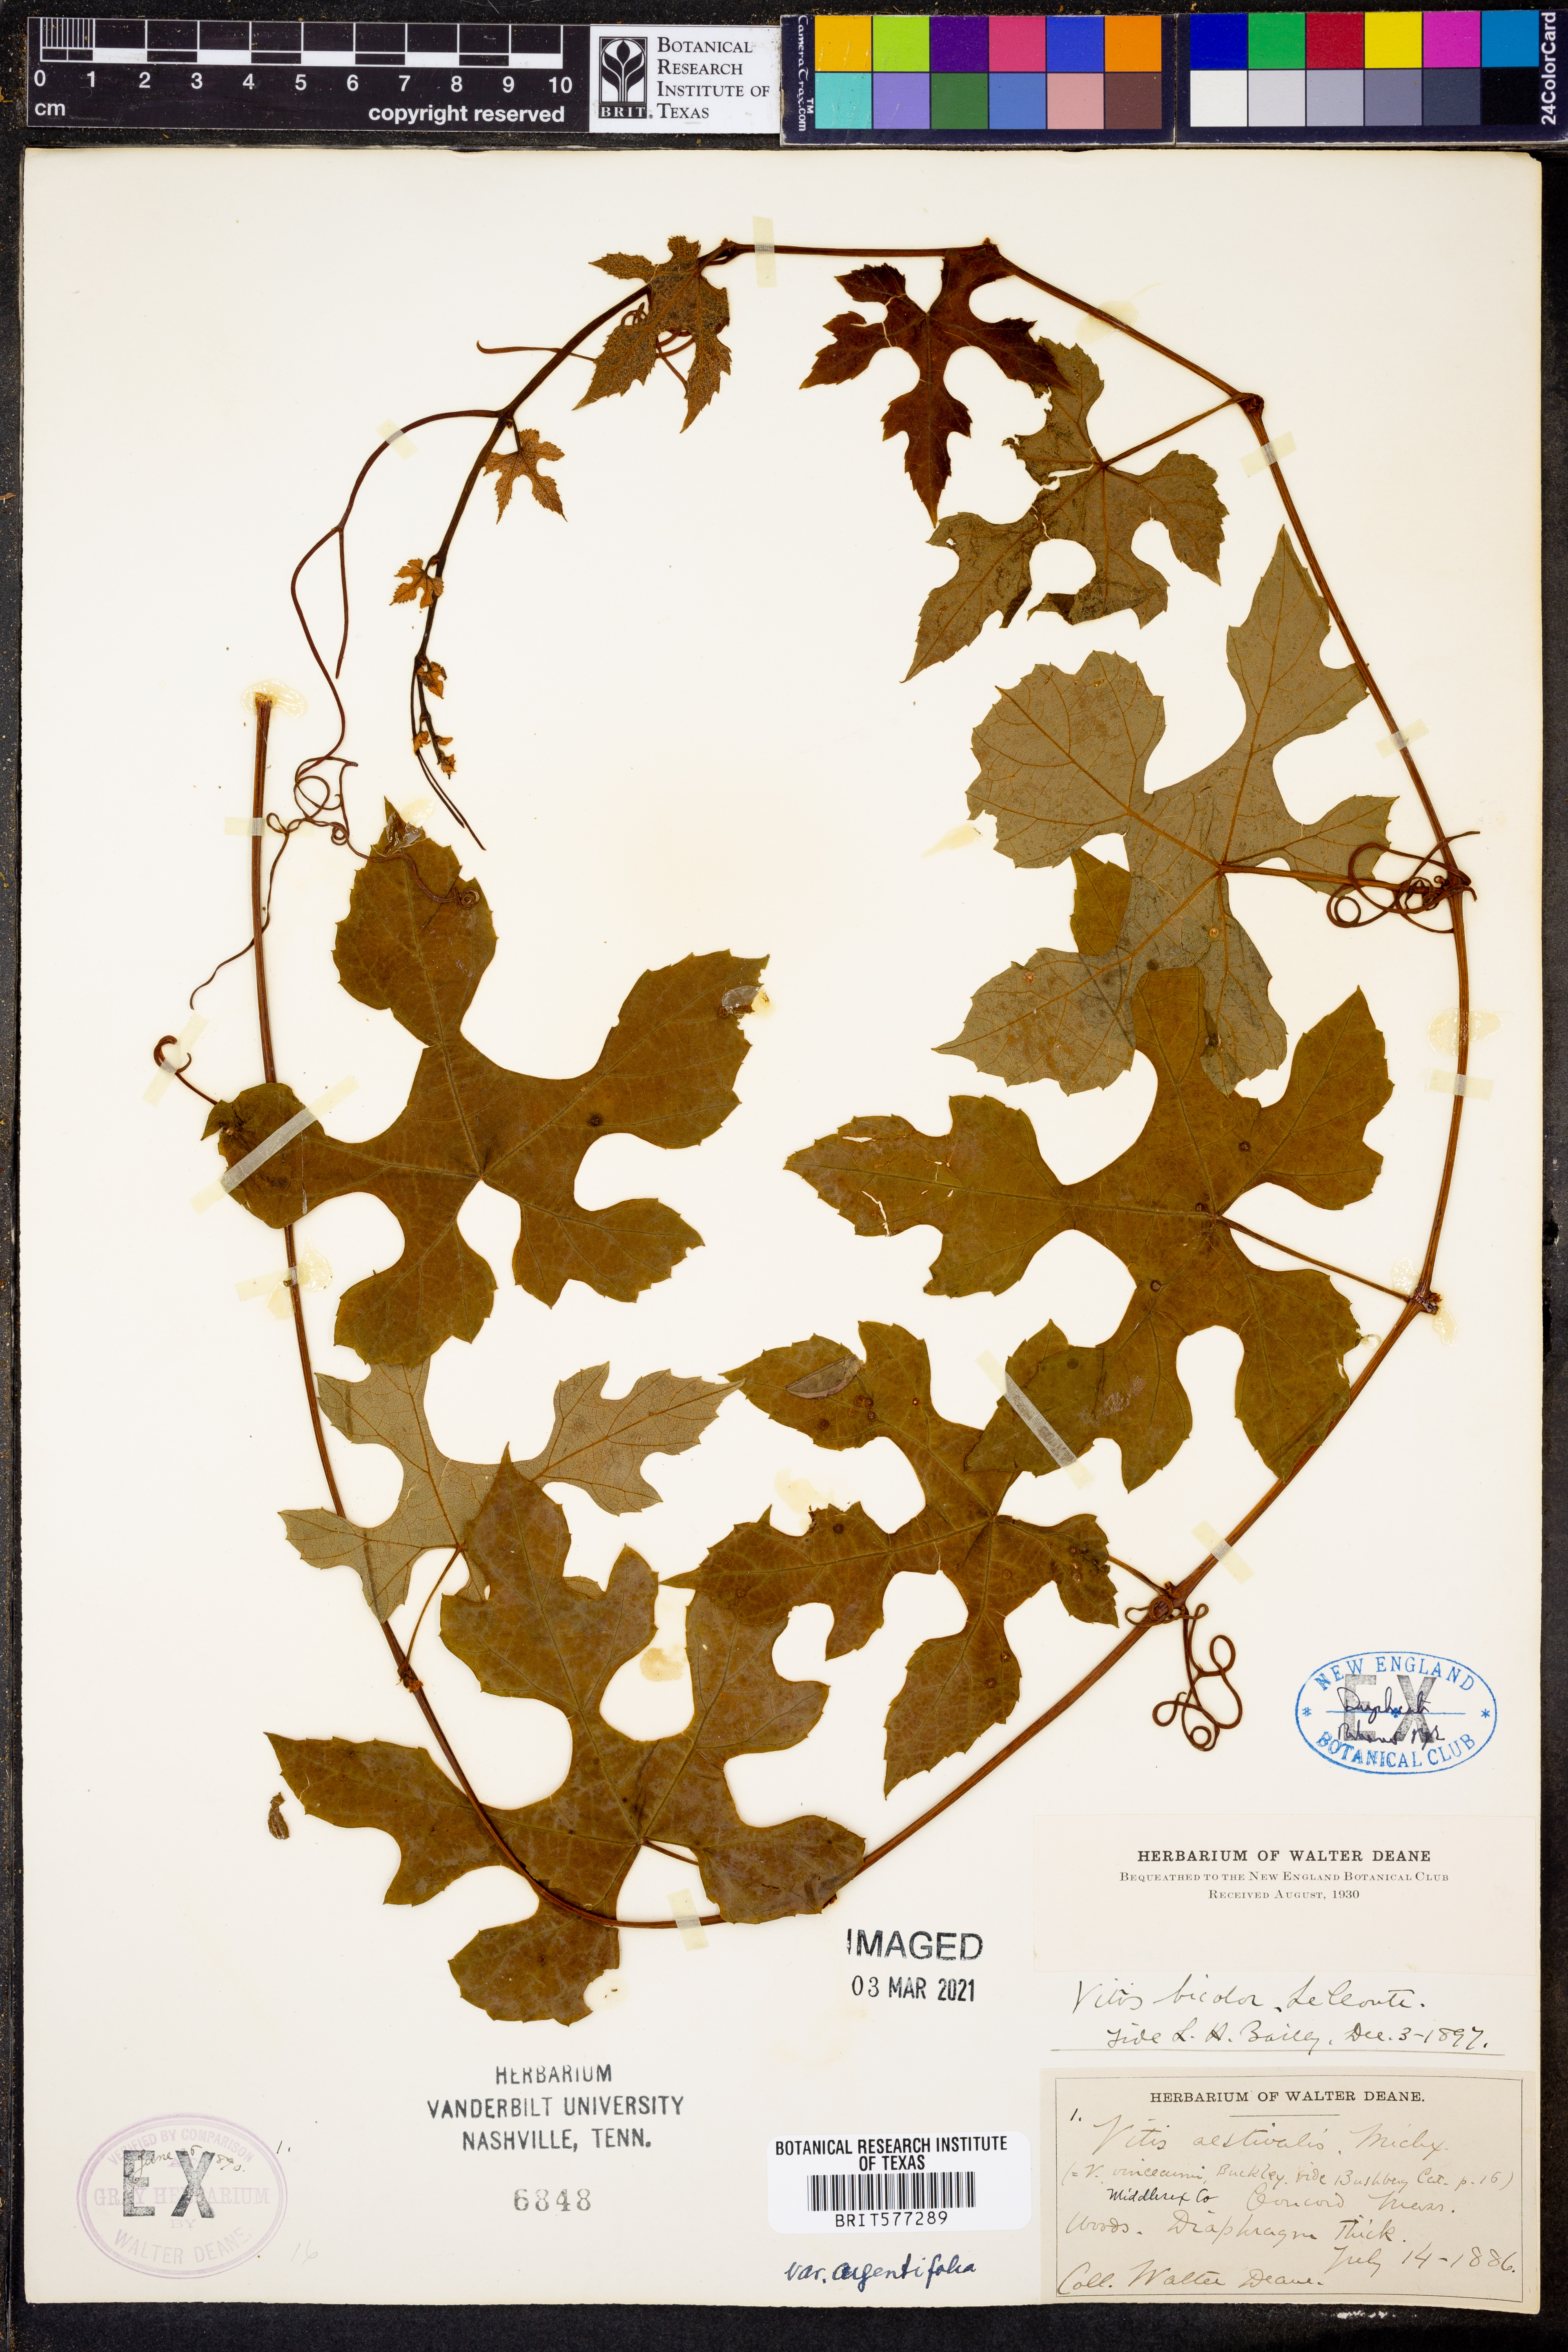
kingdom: Plantae
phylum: Tracheophyta
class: Magnoliopsida
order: Vitales
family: Vitaceae
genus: Vitis
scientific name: Vitis aestivalis
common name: Pigeon grape
